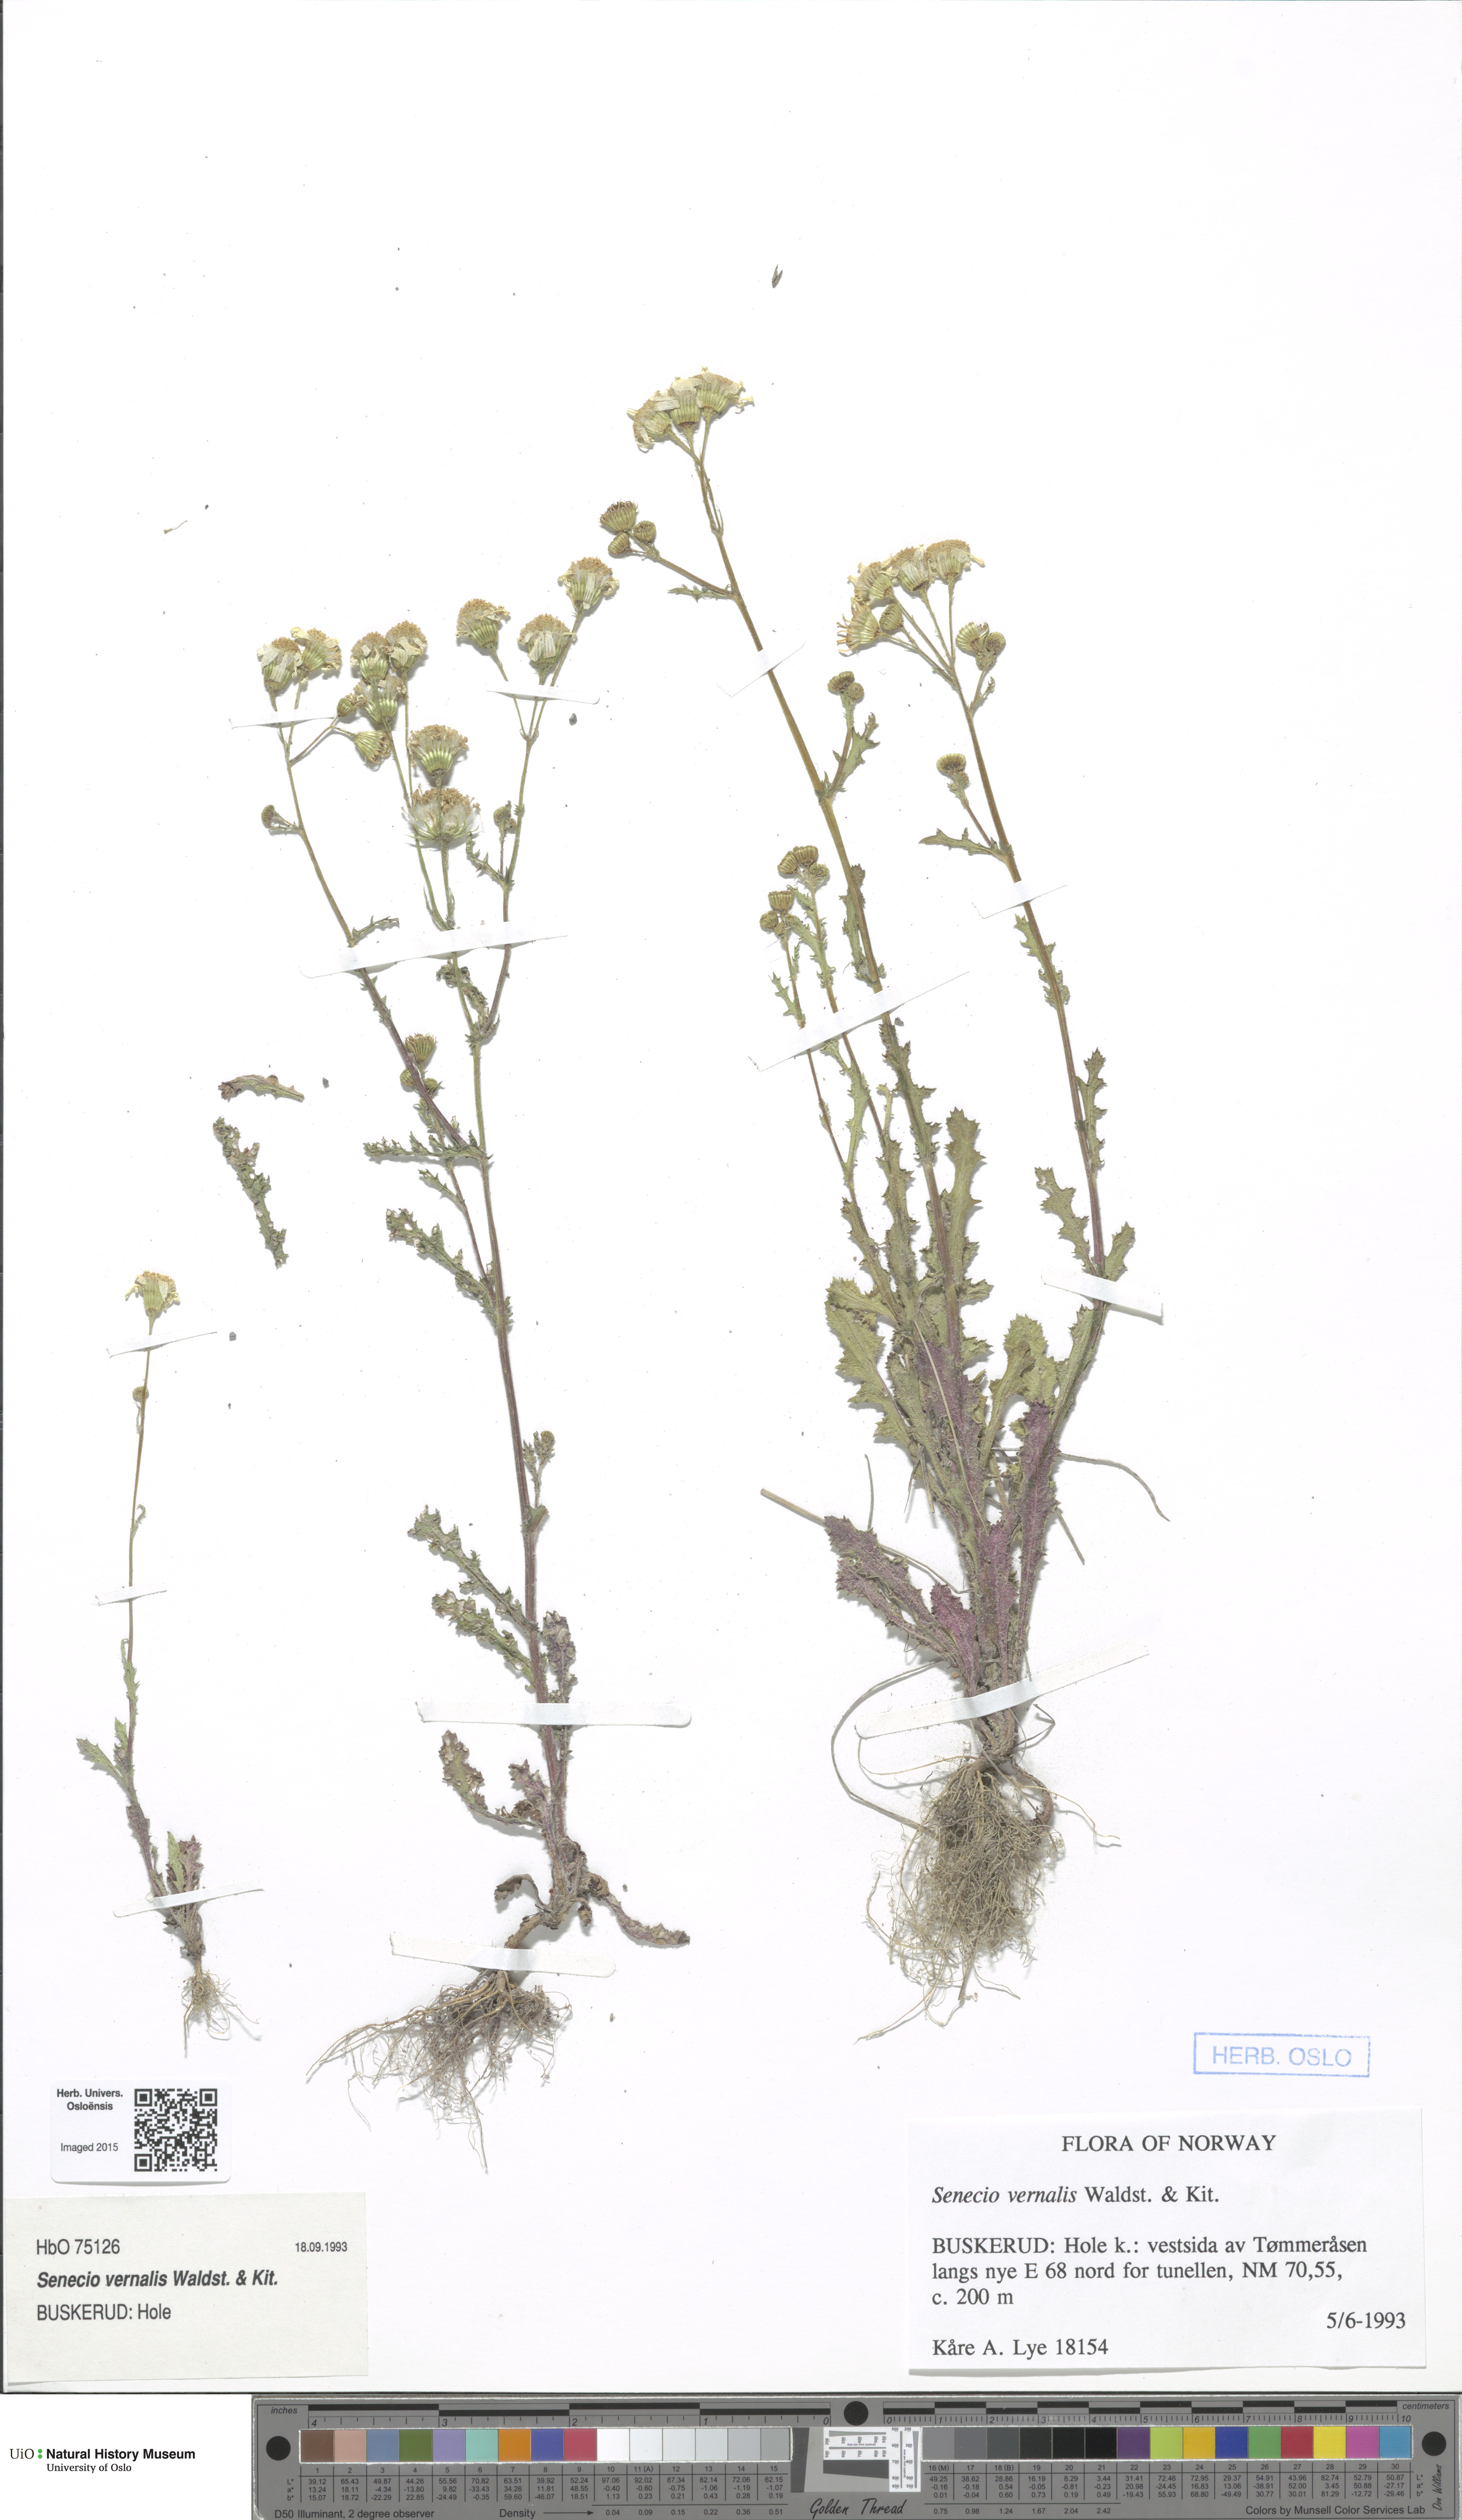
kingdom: Plantae
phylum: Tracheophyta
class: Magnoliopsida
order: Asterales
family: Asteraceae
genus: Senecio
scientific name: Senecio vernalis
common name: Eastern groundsel
